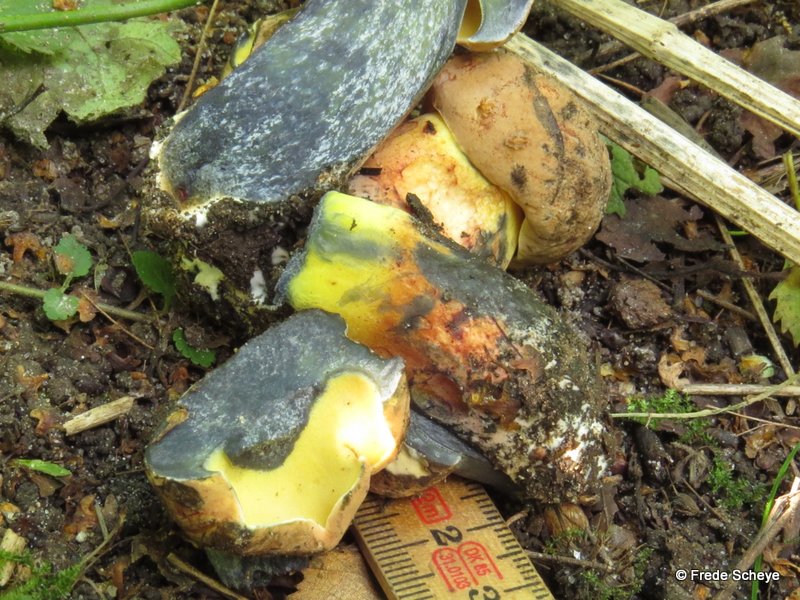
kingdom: Fungi
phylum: Basidiomycota
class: Agaricomycetes
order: Boletales
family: Boletaceae
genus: Cyanoboletus
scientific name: Cyanoboletus pulverulentus
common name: sortblånende rørhat
